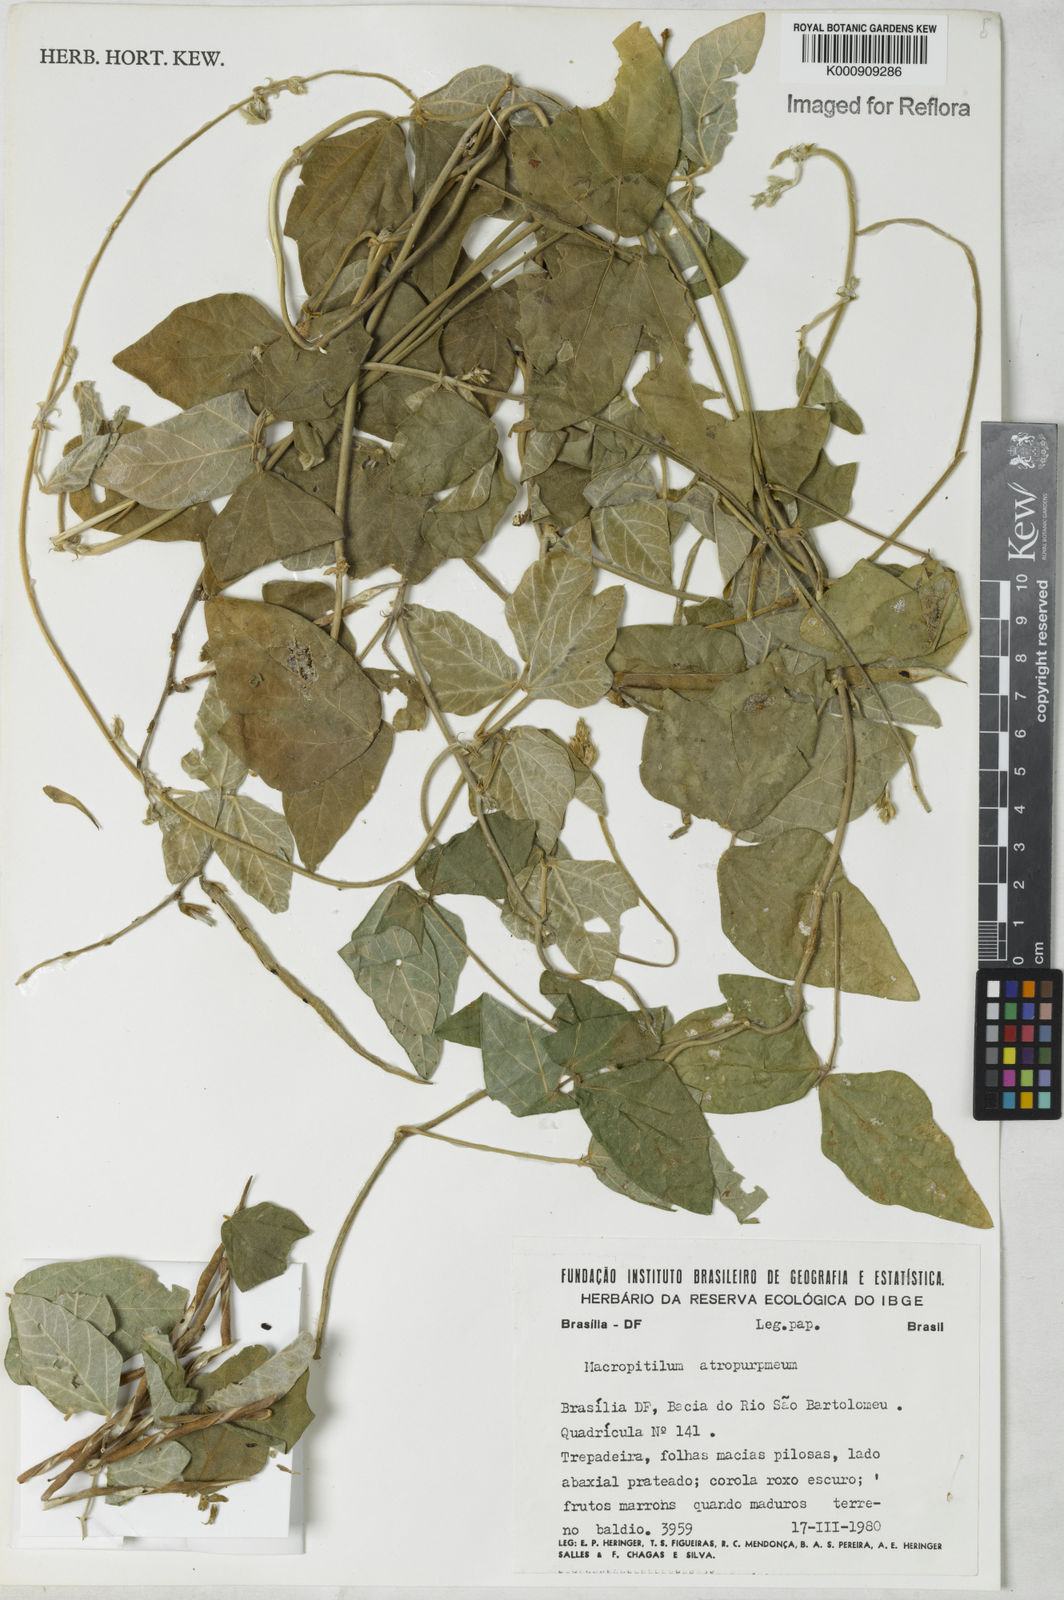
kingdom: Plantae
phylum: Tracheophyta
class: Magnoliopsida
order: Fabales
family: Fabaceae
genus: Macroptilium
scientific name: Macroptilium
